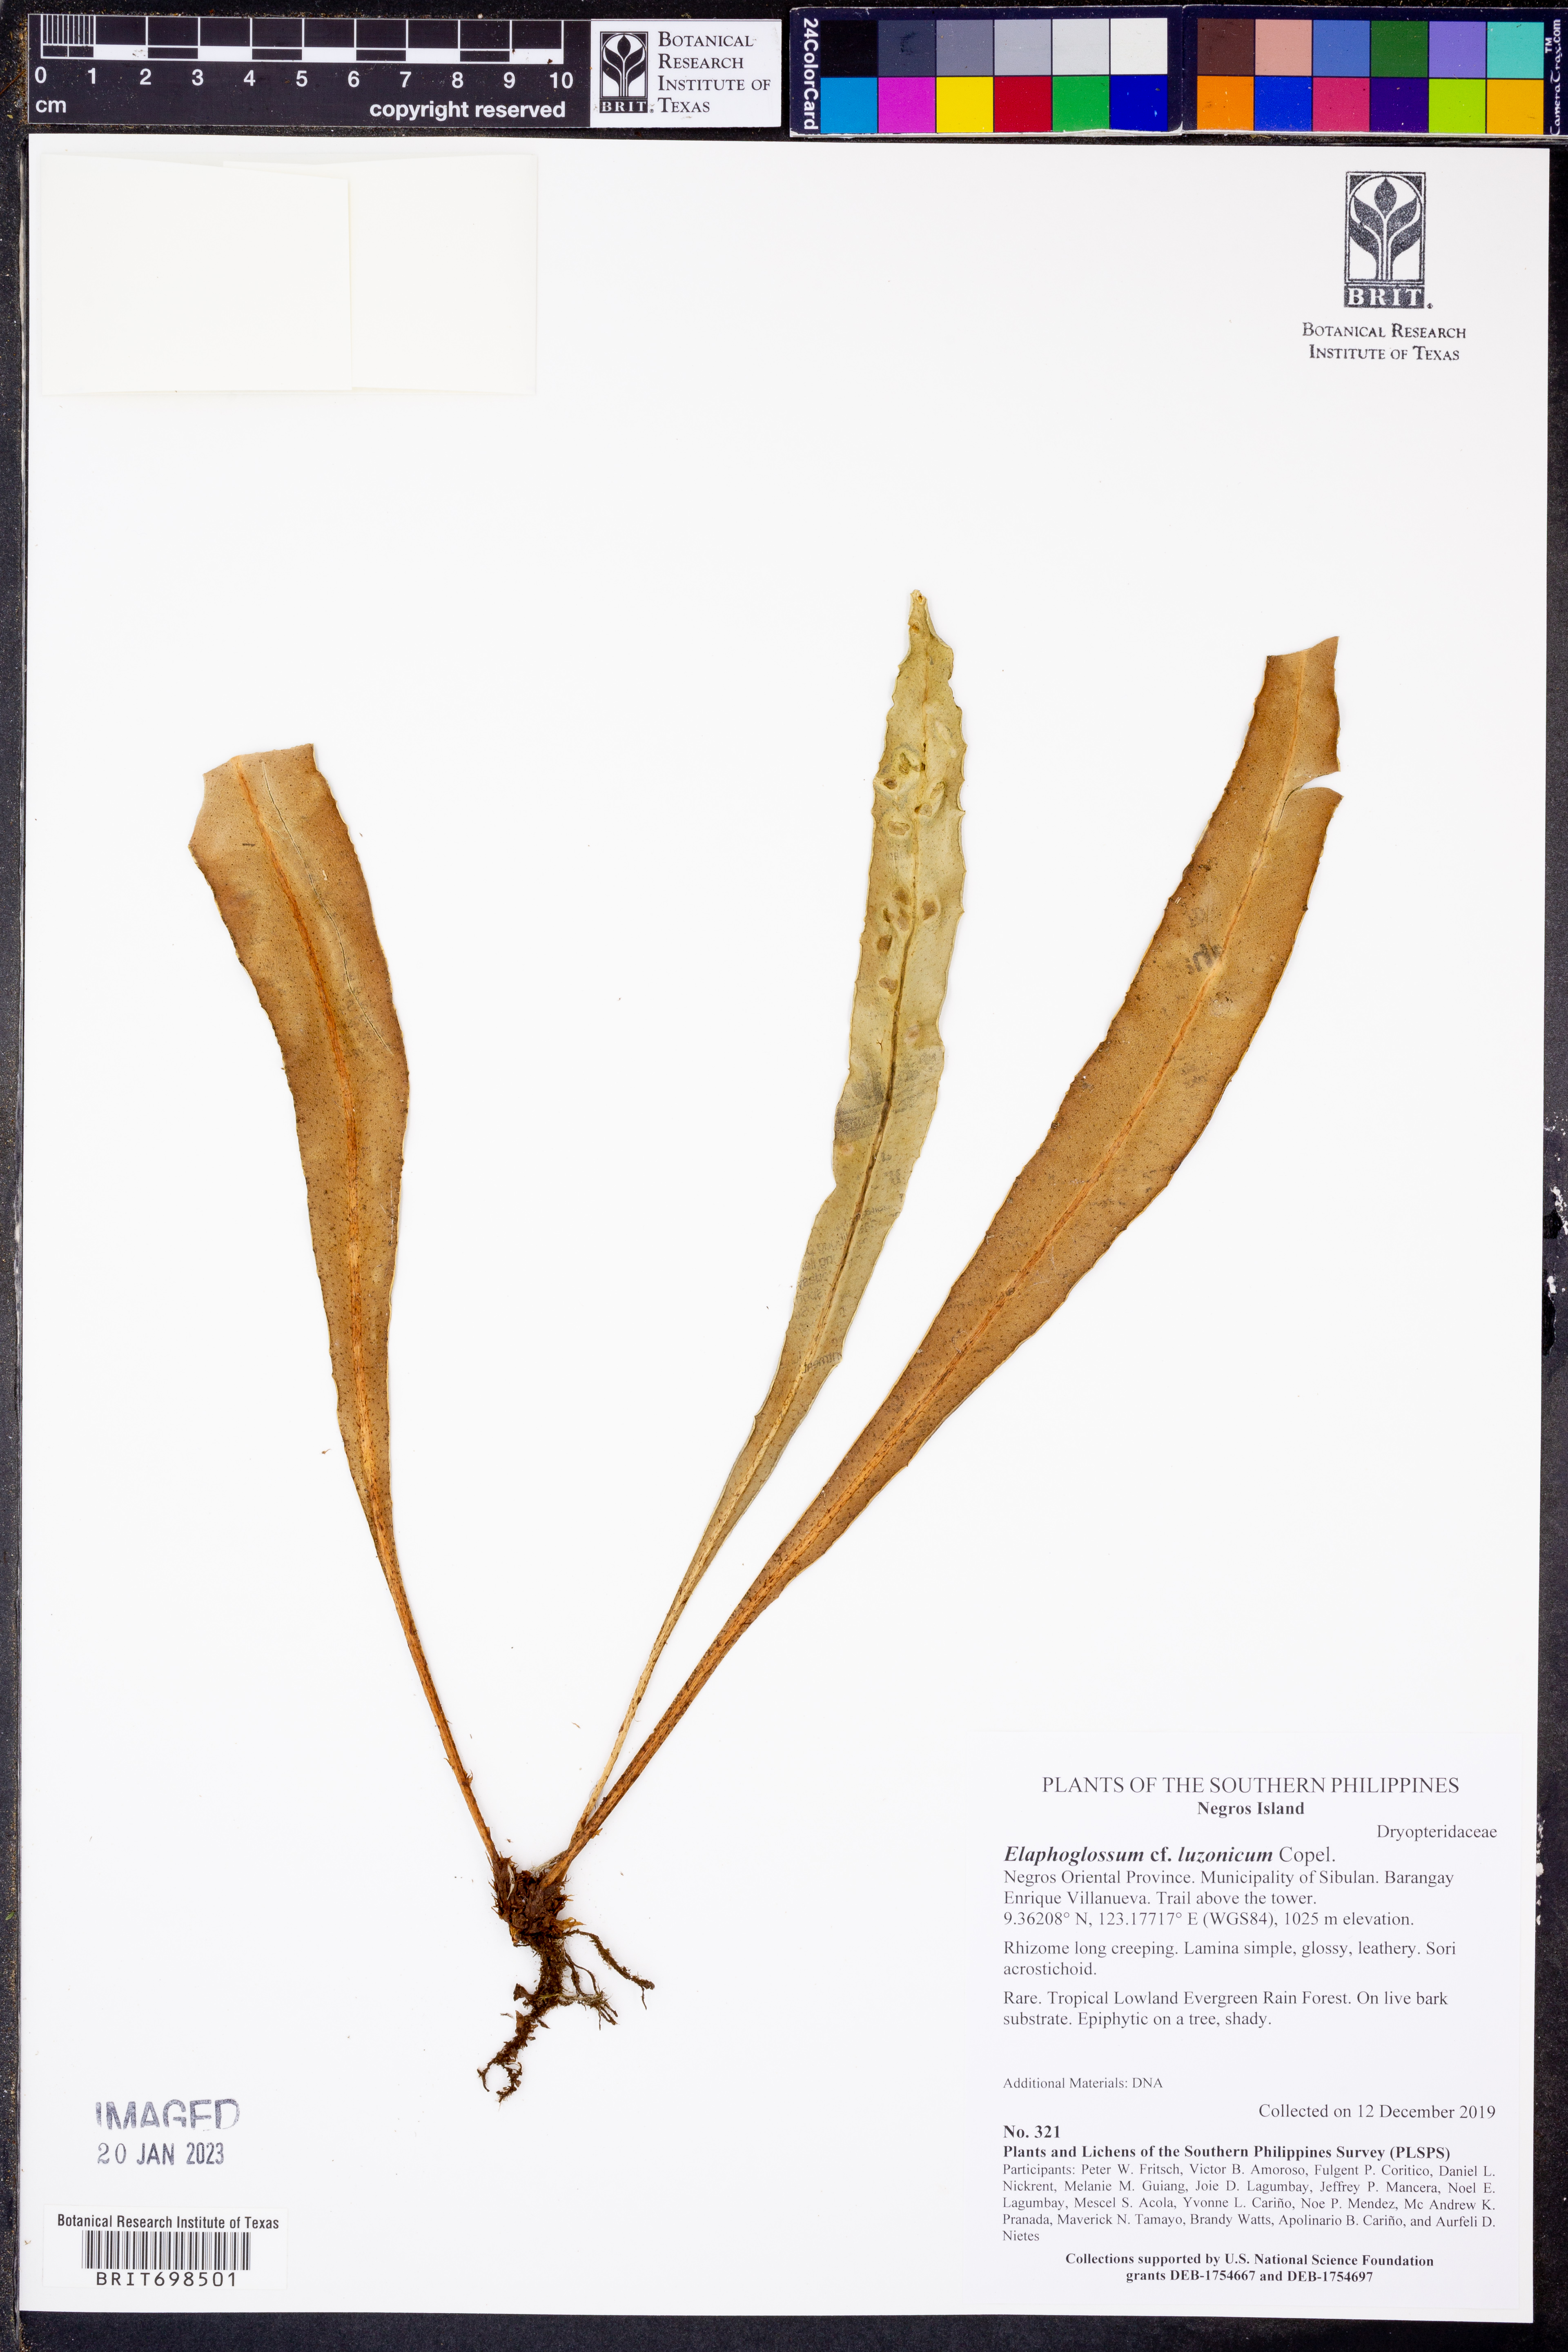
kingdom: Plantae
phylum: Tracheophyta
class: Polypodiopsida
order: Polypodiales
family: Dryopteridaceae
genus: Elaphoglossum
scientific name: Elaphoglossum luzonicum
